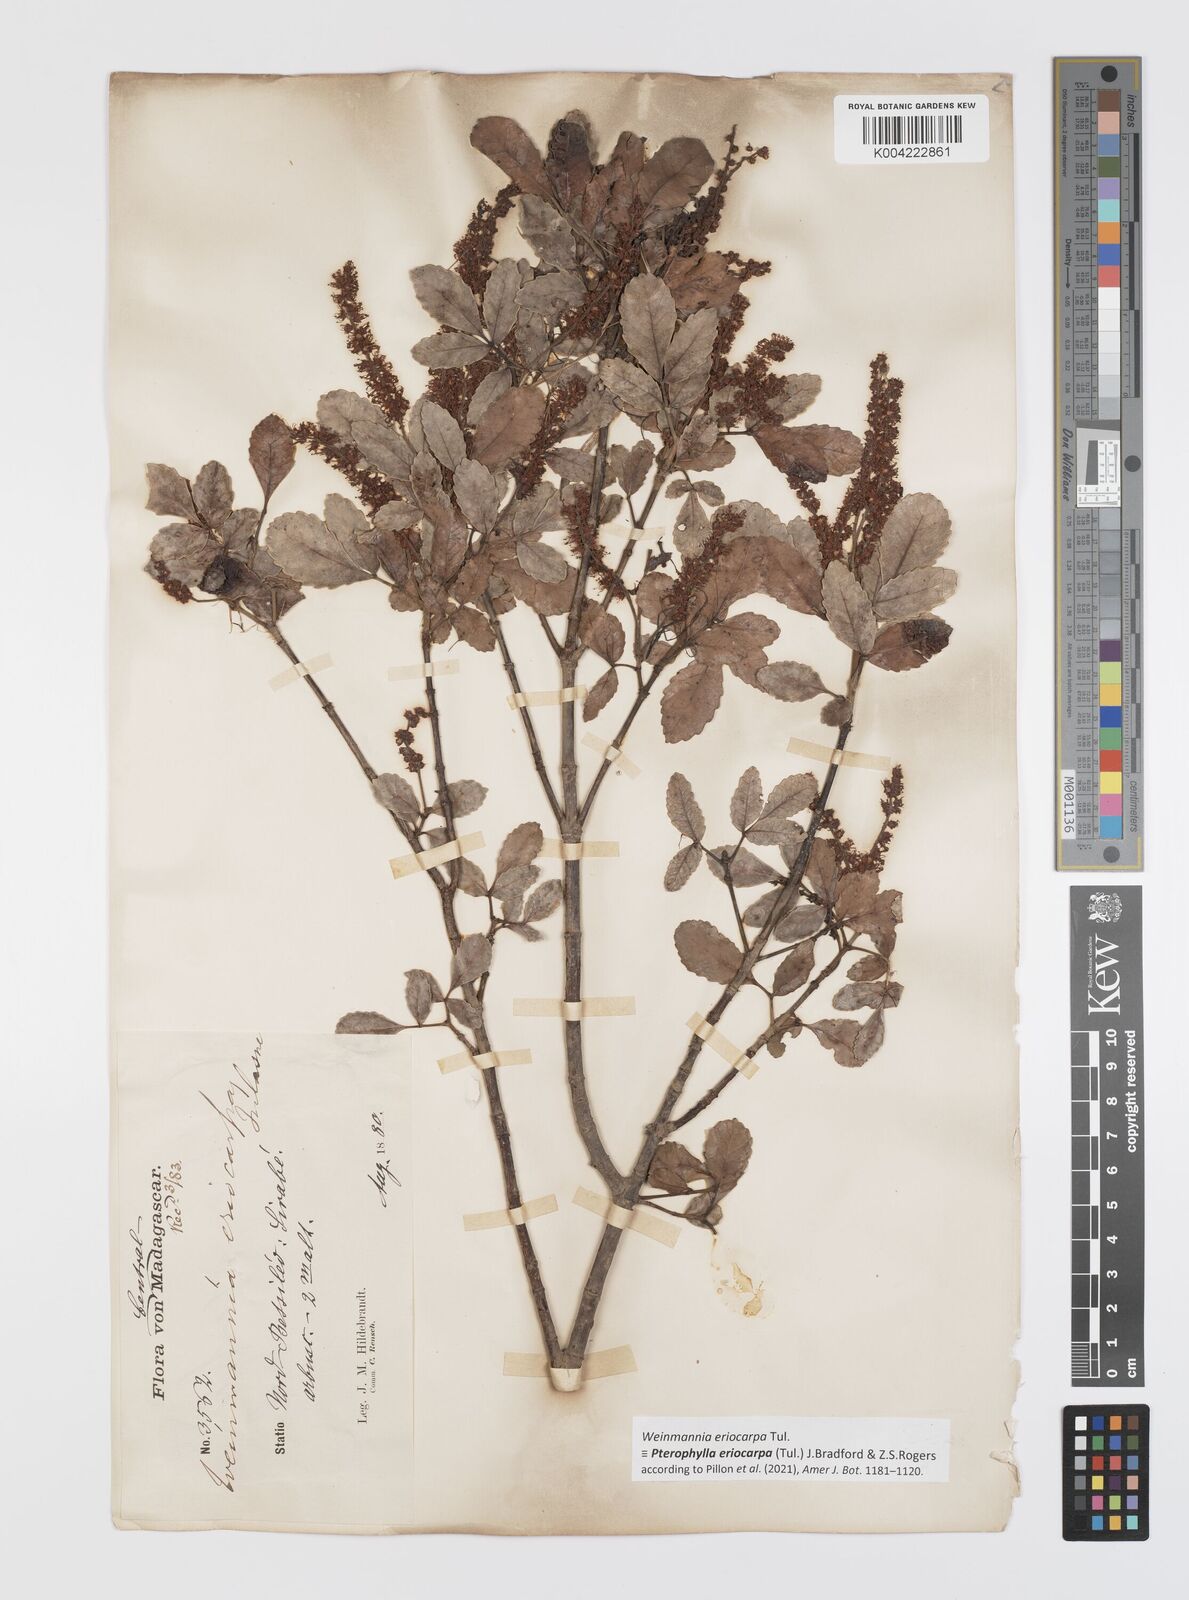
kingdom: Plantae
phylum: Tracheophyta
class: Magnoliopsida
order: Oxalidales
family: Cunoniaceae
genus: Pterophylla
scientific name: Pterophylla eriocarpa
